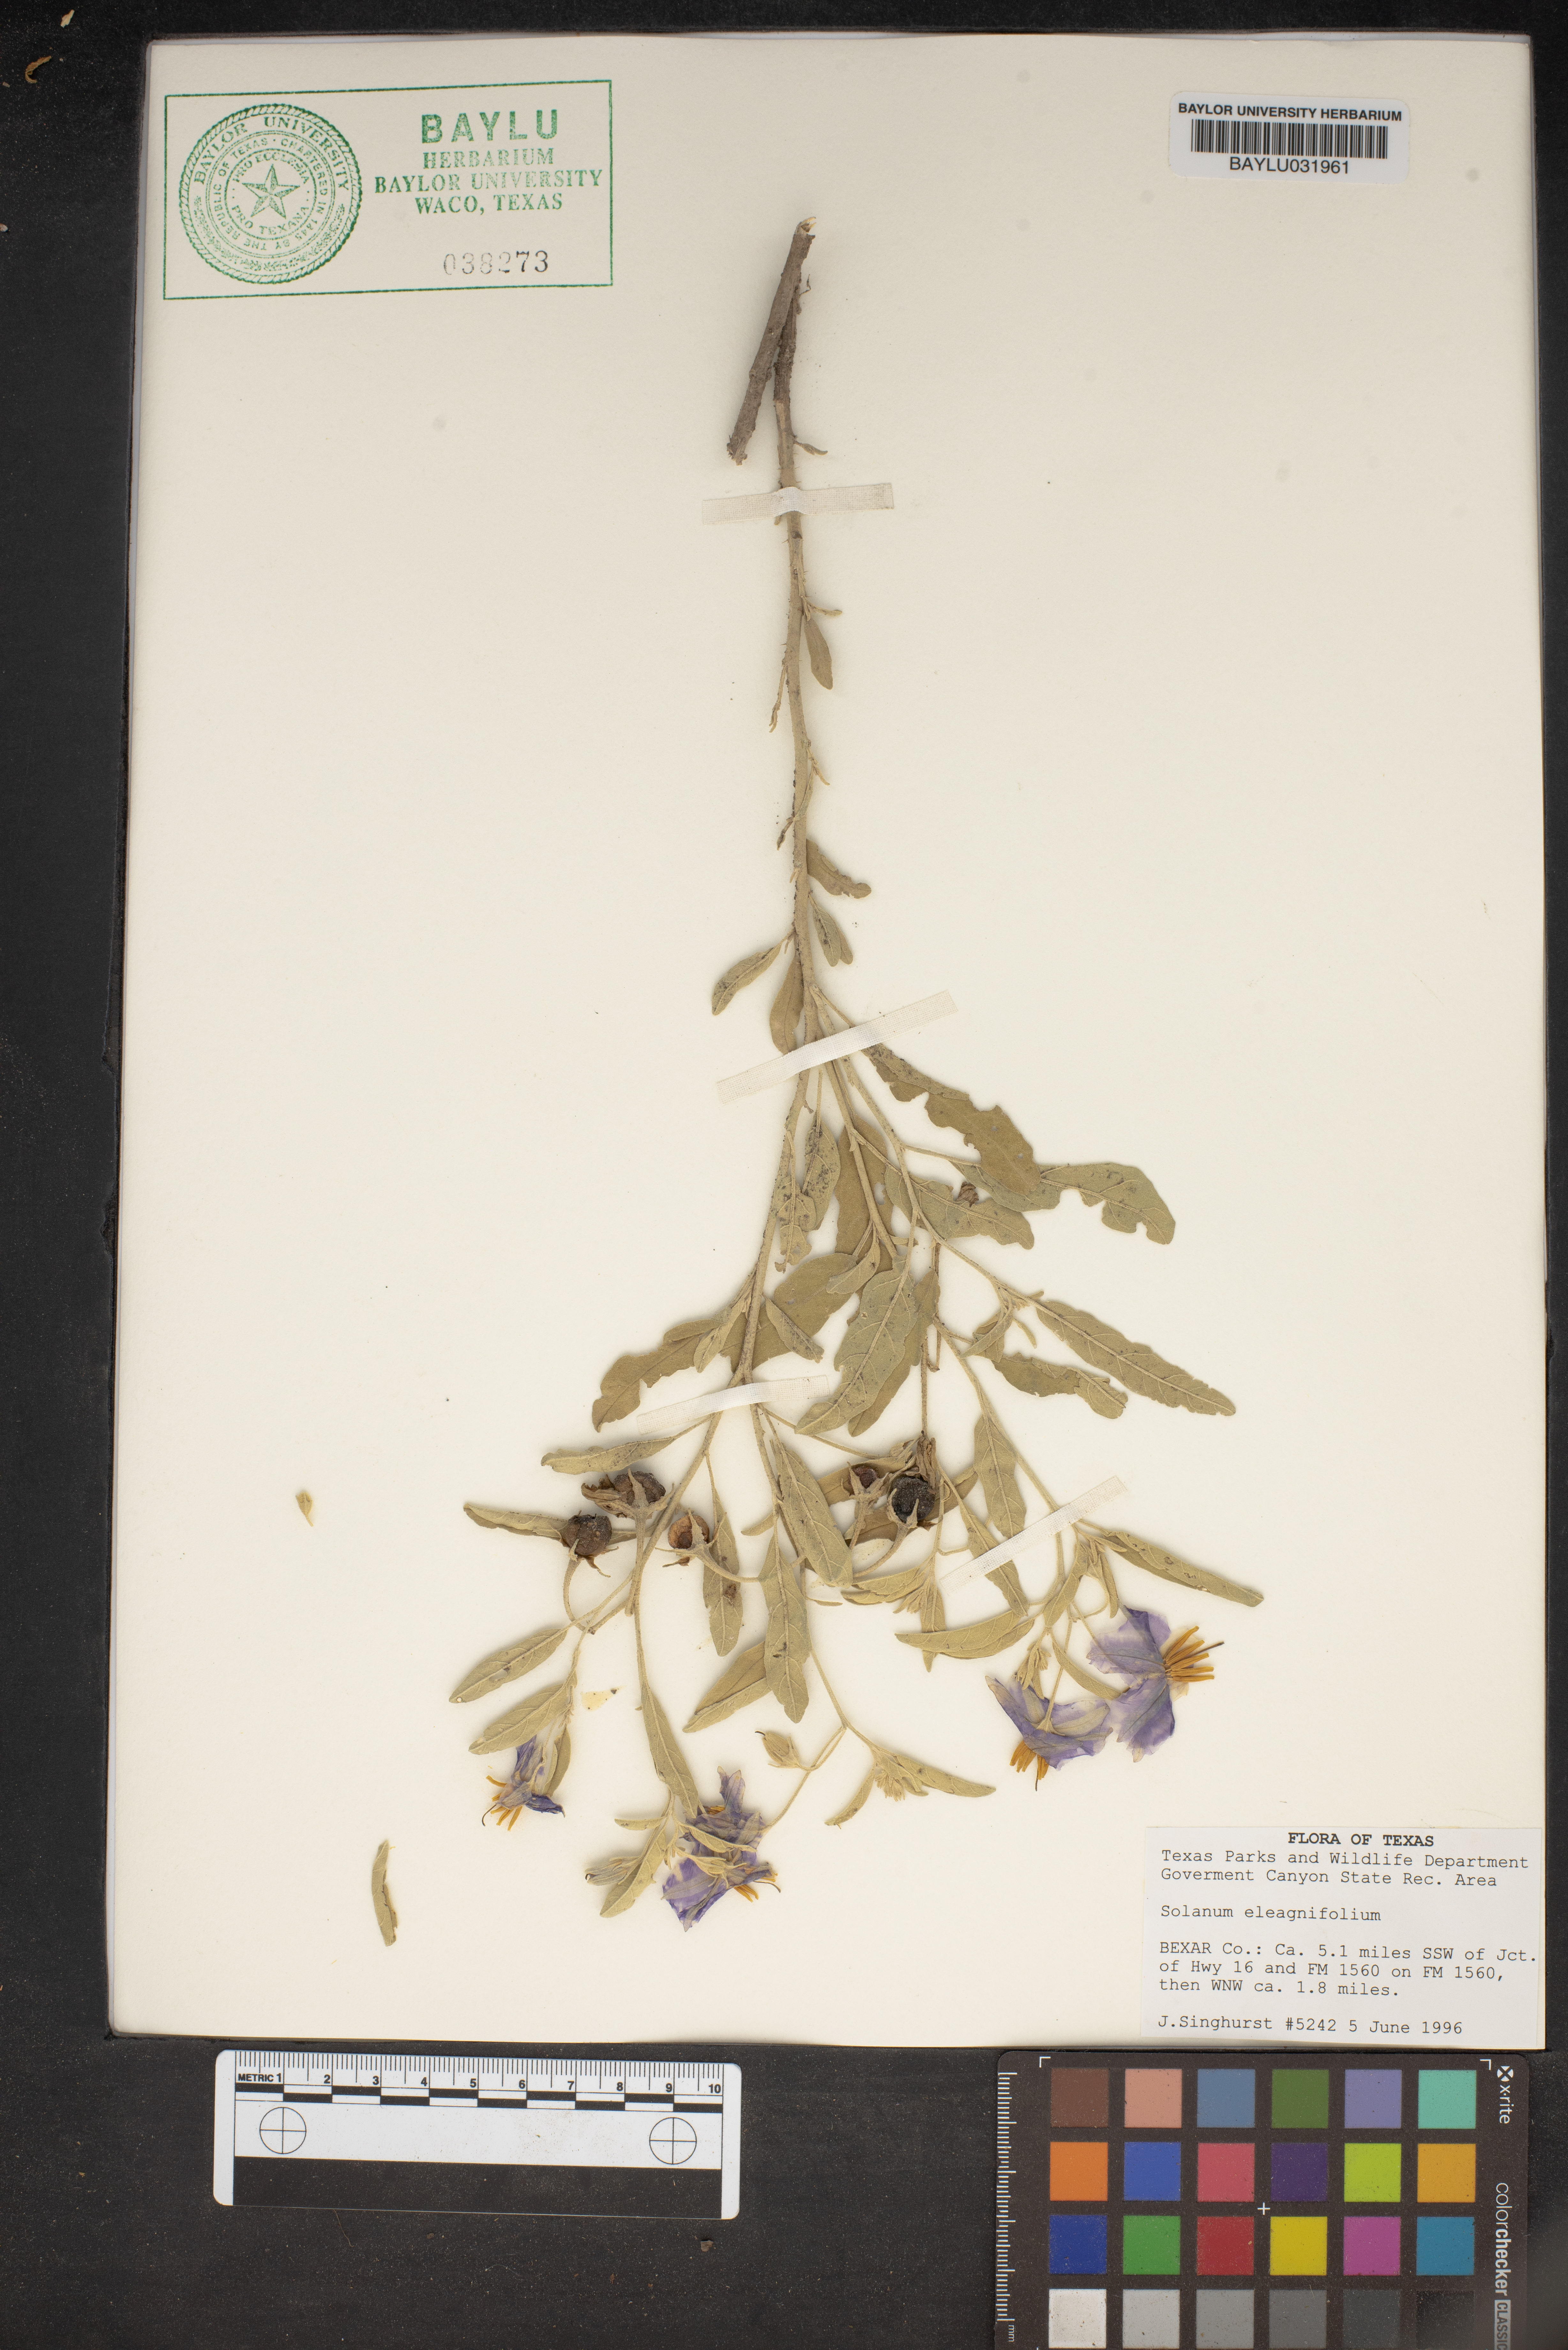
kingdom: Plantae
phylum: Tracheophyta
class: Magnoliopsida
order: Solanales
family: Solanaceae
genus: Solanum
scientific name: Solanum elaeagnifolium
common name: Silverleaf nightshade
